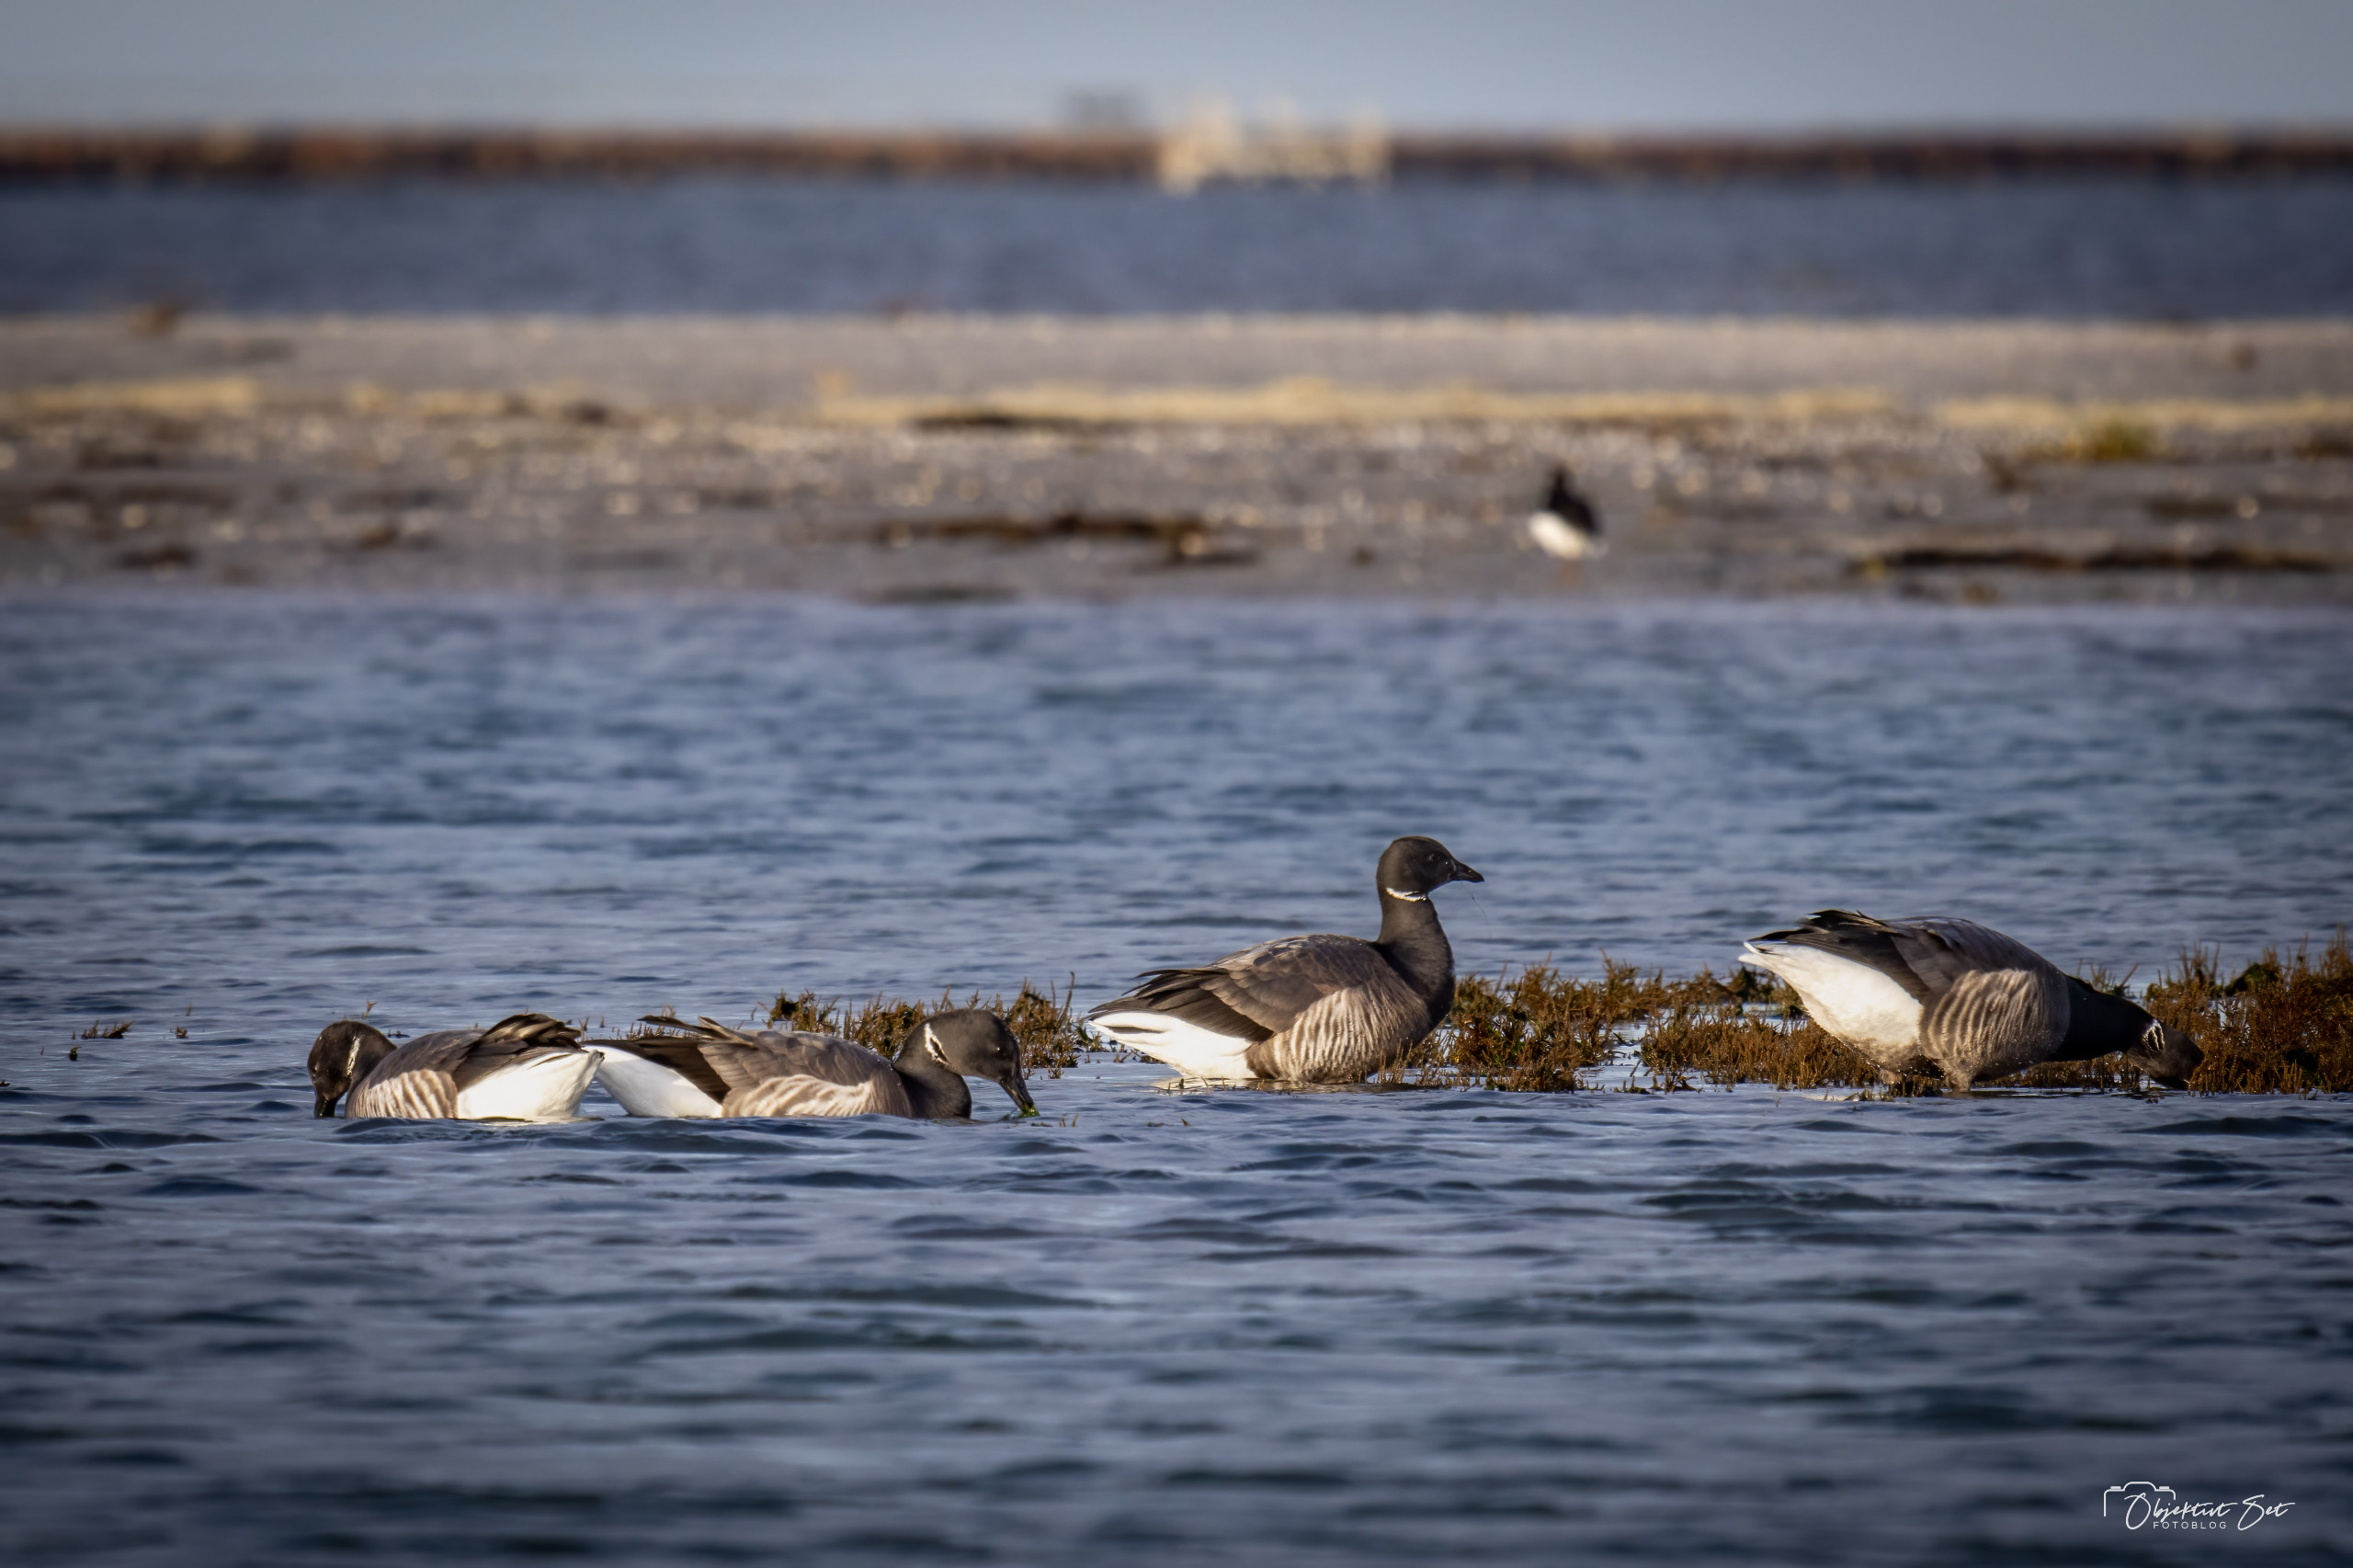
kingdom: Animalia
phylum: Chordata
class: Aves
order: Anseriformes
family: Anatidae
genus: Branta
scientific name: Branta bernicla
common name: Knortegås
